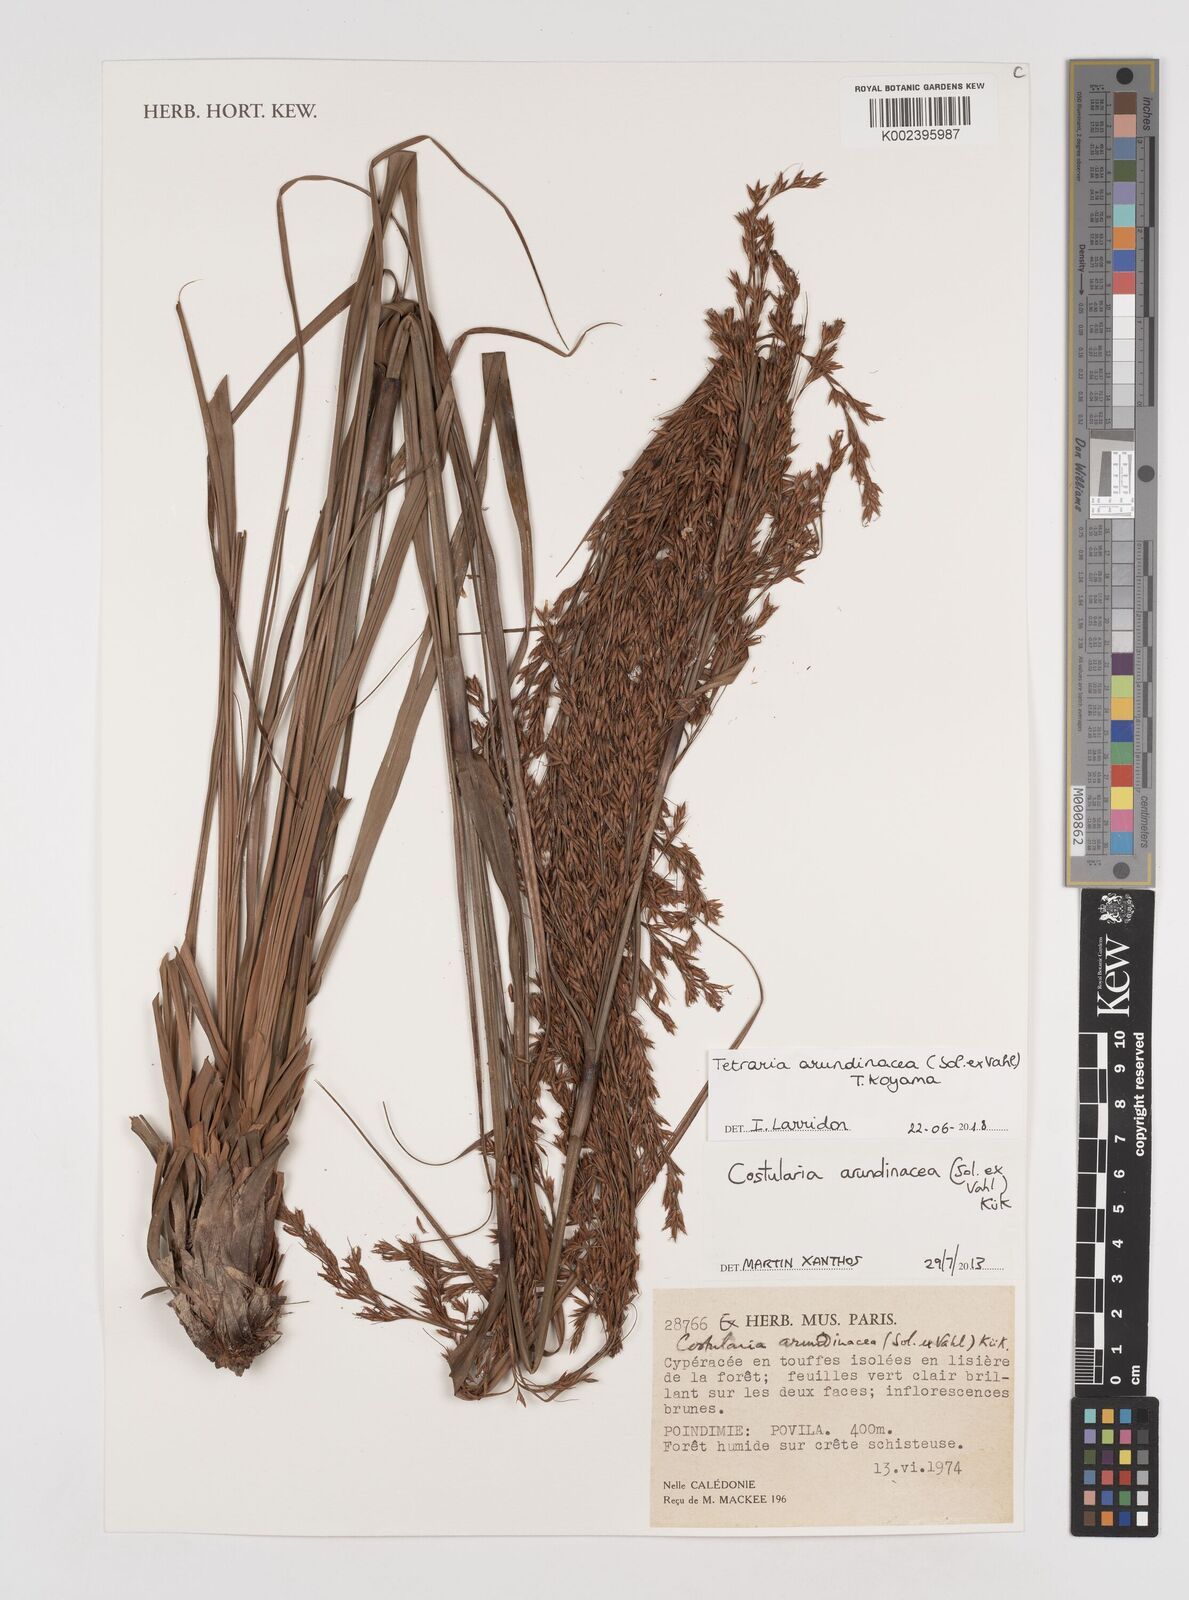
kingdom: Plantae
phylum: Tracheophyta
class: Liliopsida
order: Poales
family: Cyperaceae
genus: Tetraria
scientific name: Tetraria arundinacea
